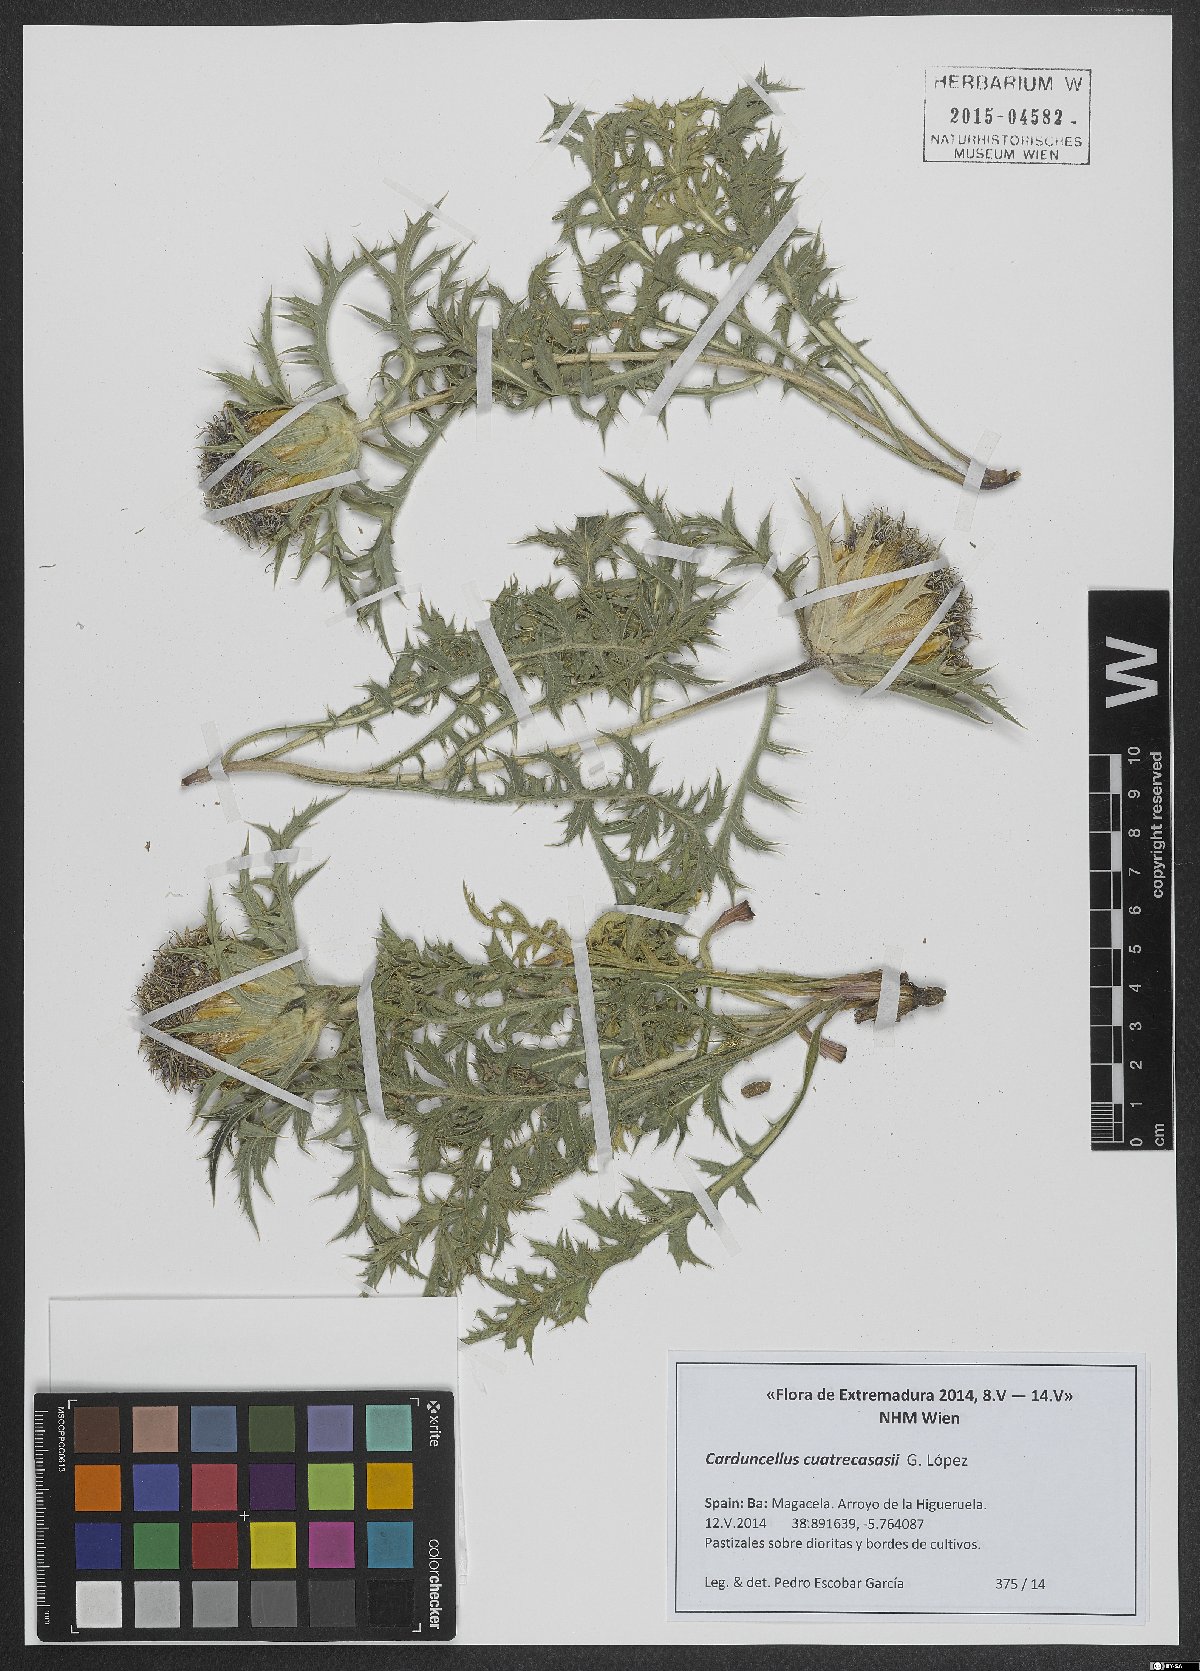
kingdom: Plantae
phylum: Tracheophyta
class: Magnoliopsida
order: Asterales
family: Asteraceae
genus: Carduncellus
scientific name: Carduncellus hispanicus
